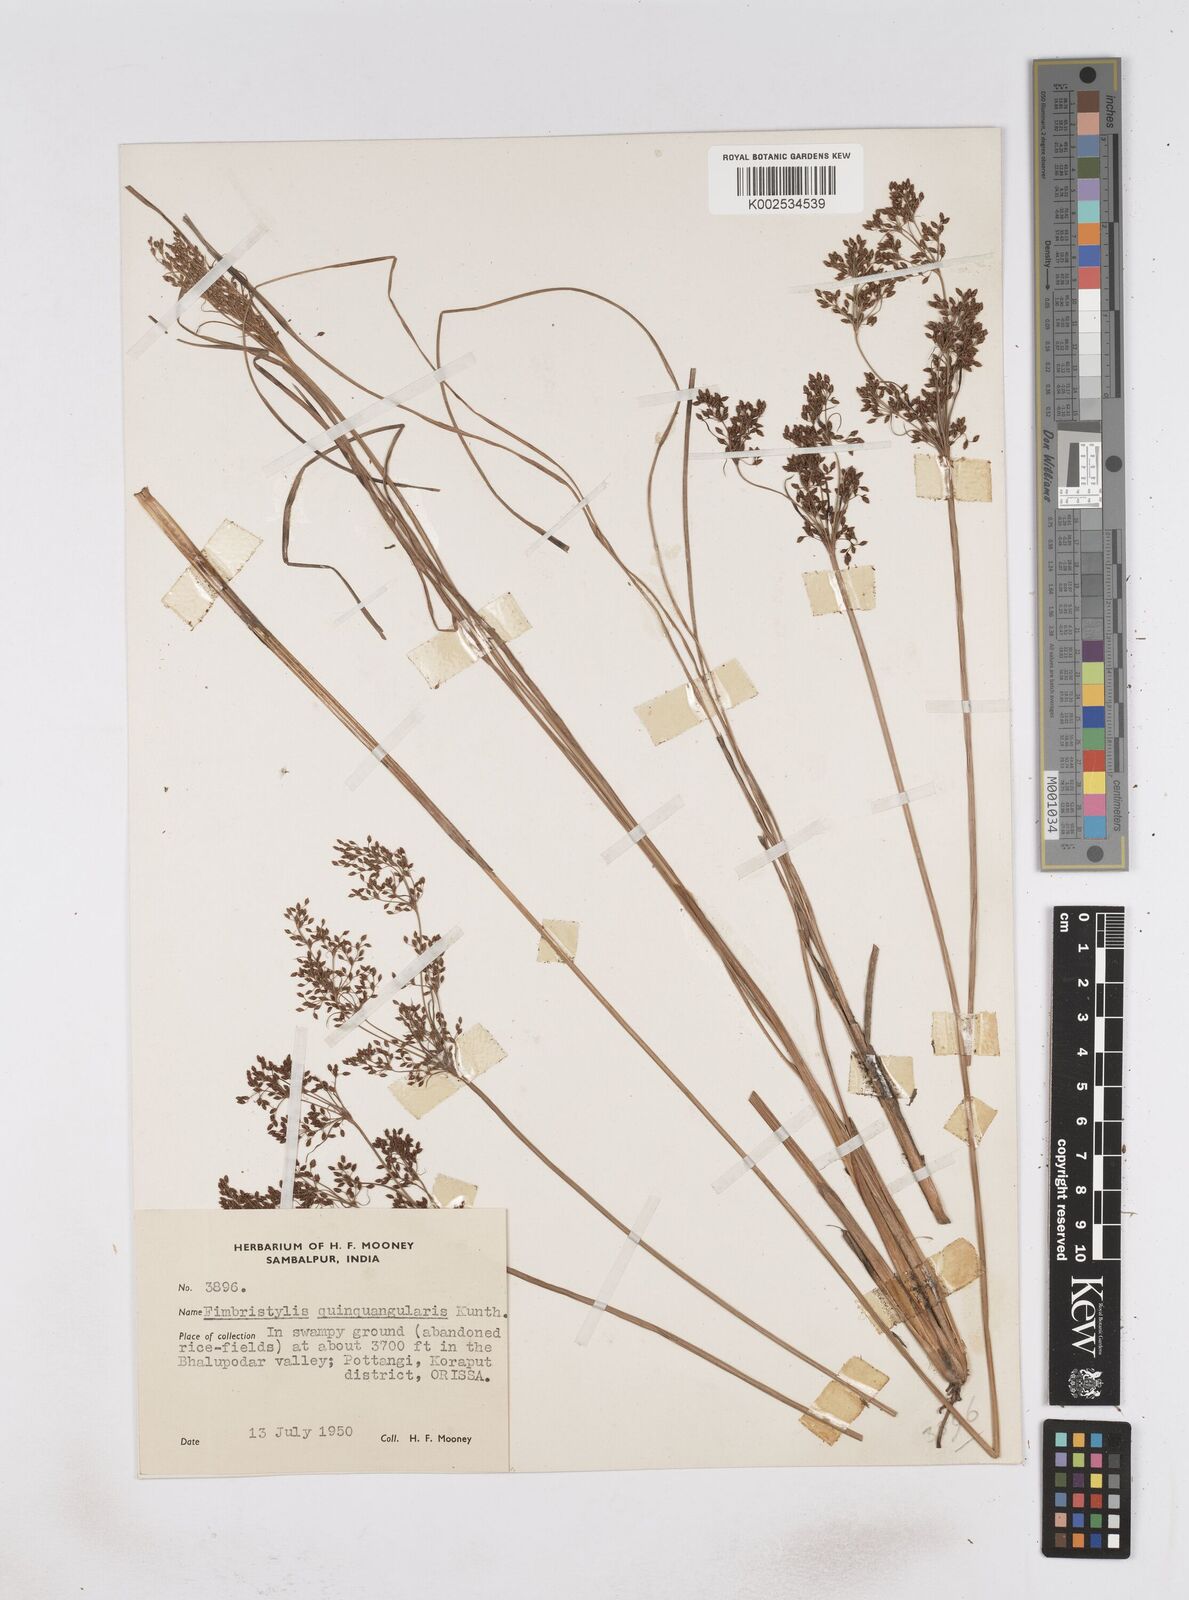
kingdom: Plantae
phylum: Tracheophyta
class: Liliopsida
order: Poales
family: Cyperaceae
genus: Fimbristylis
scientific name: Fimbristylis quinquangularis
